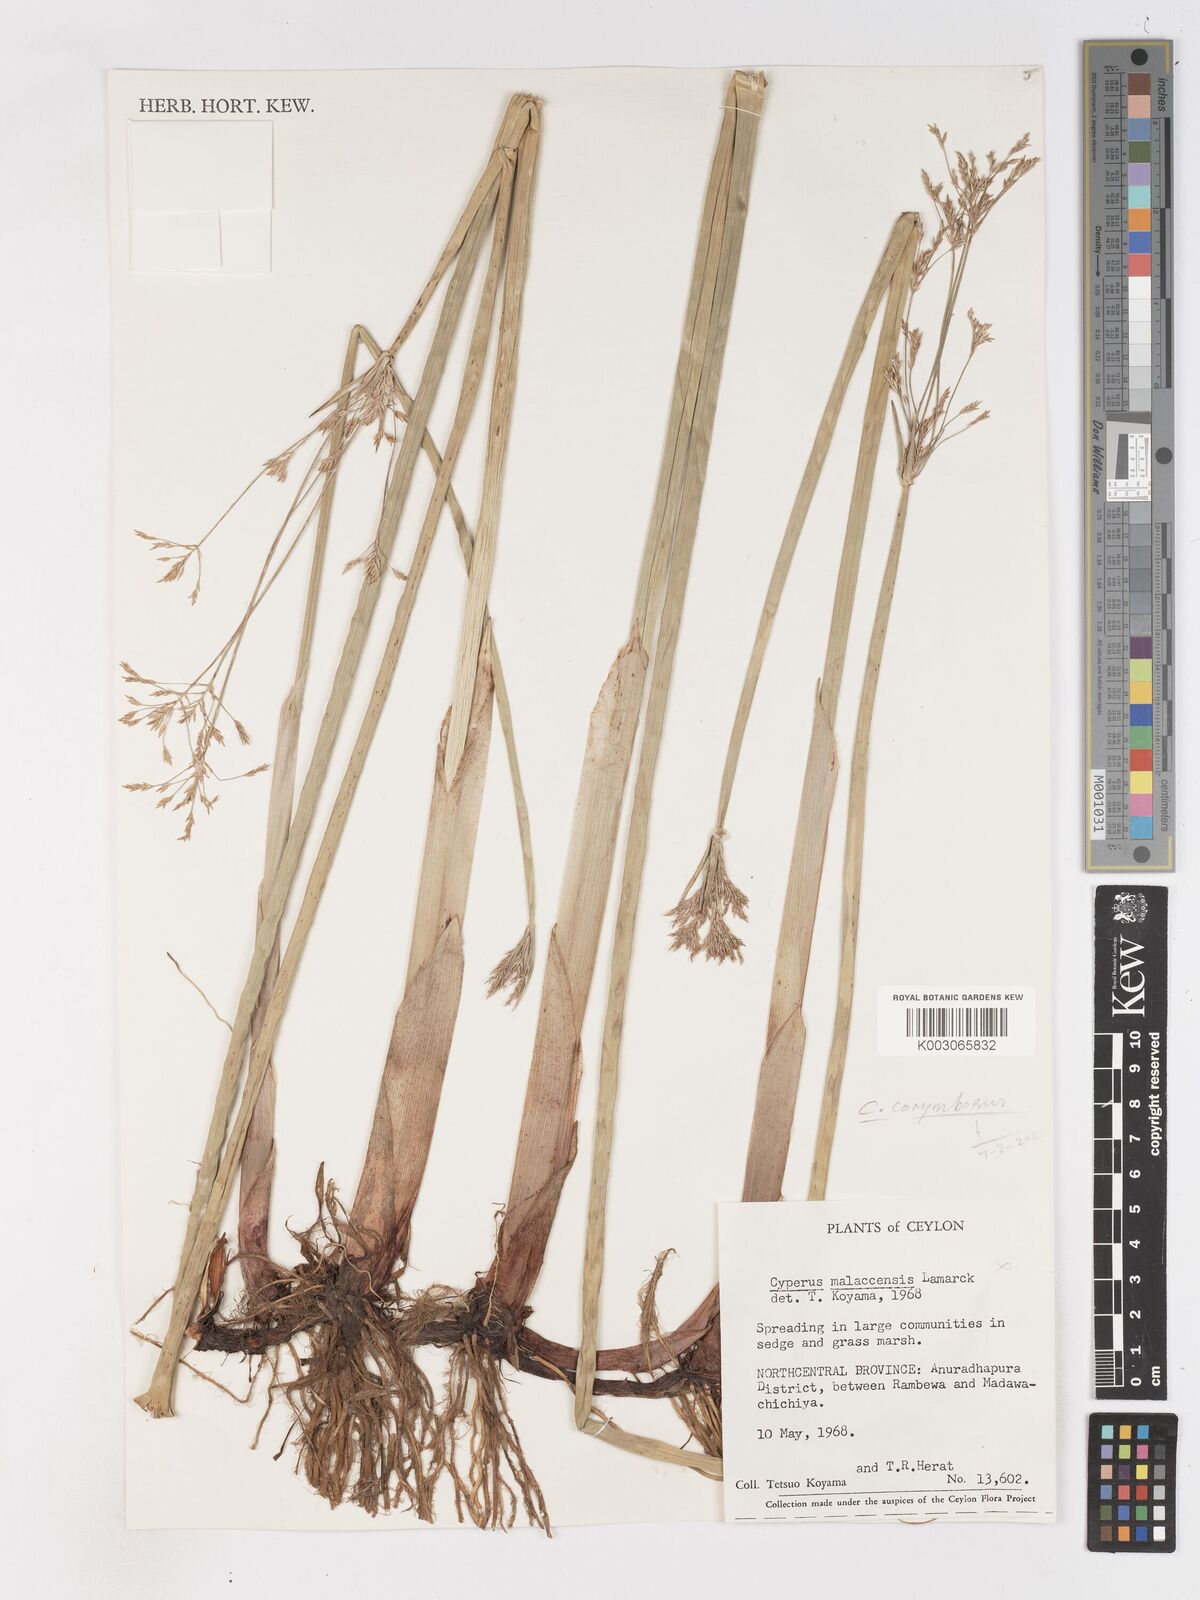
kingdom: Plantae
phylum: Tracheophyta
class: Liliopsida
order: Poales
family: Cyperaceae
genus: Cyperus
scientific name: Cyperus malaccensis
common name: Shichito matgrass
